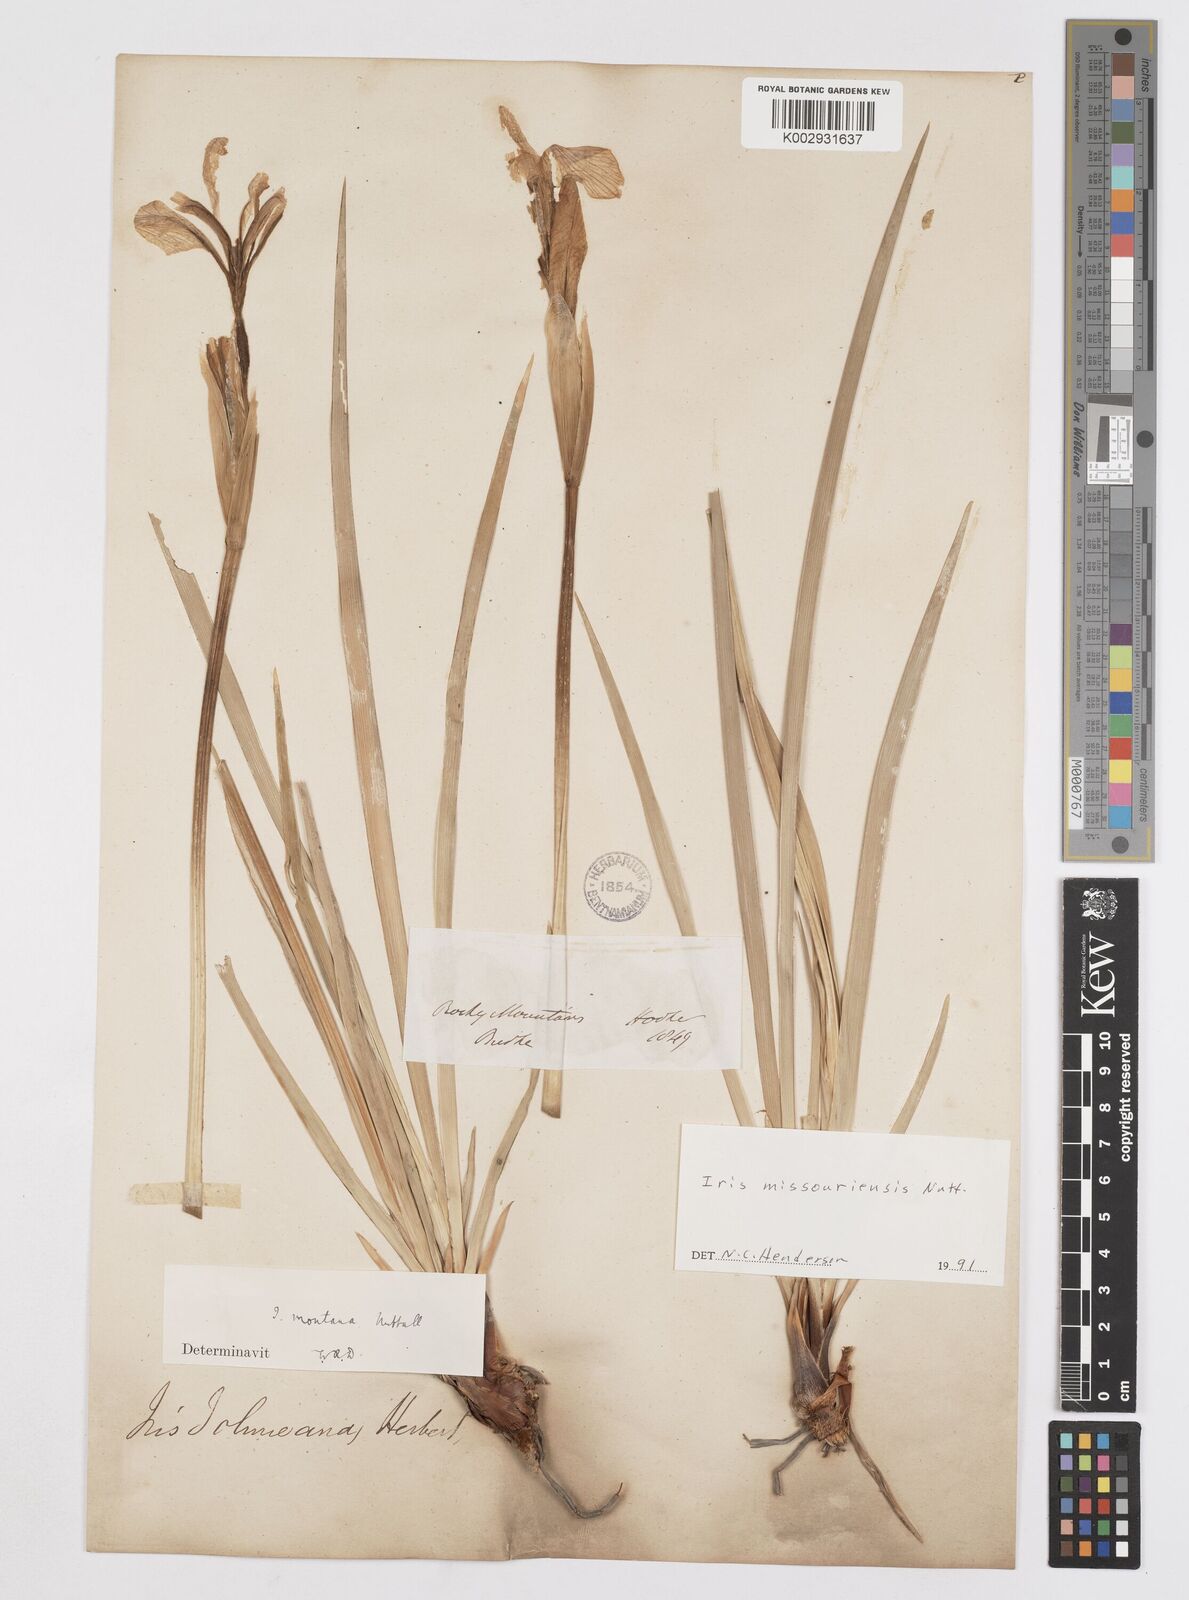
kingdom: Plantae
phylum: Tracheophyta
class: Liliopsida
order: Asparagales
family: Iridaceae
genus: Iris
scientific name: Iris missouriensis
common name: Rocky mountain iris
